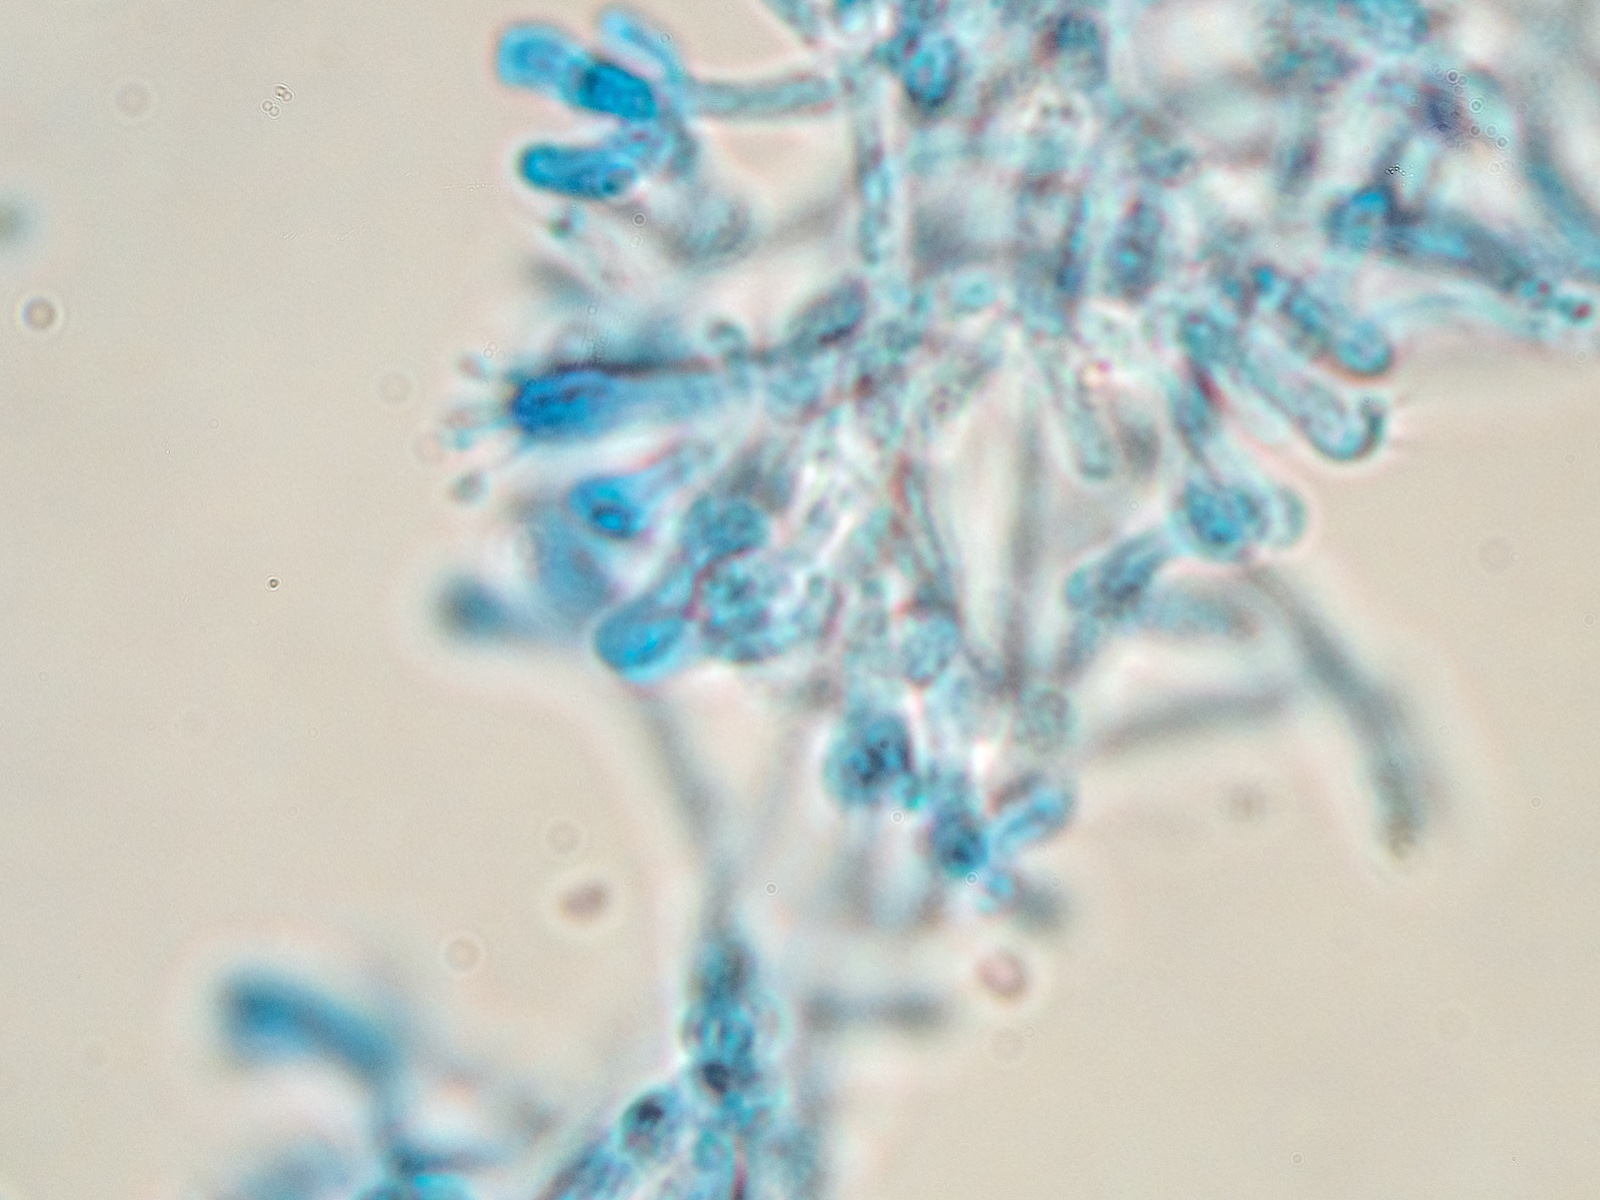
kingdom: Fungi
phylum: Basidiomycota
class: Agaricomycetes
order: Atheliales
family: Atheliaceae
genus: Leptosporomyces
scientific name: Leptosporomyces galzinii
